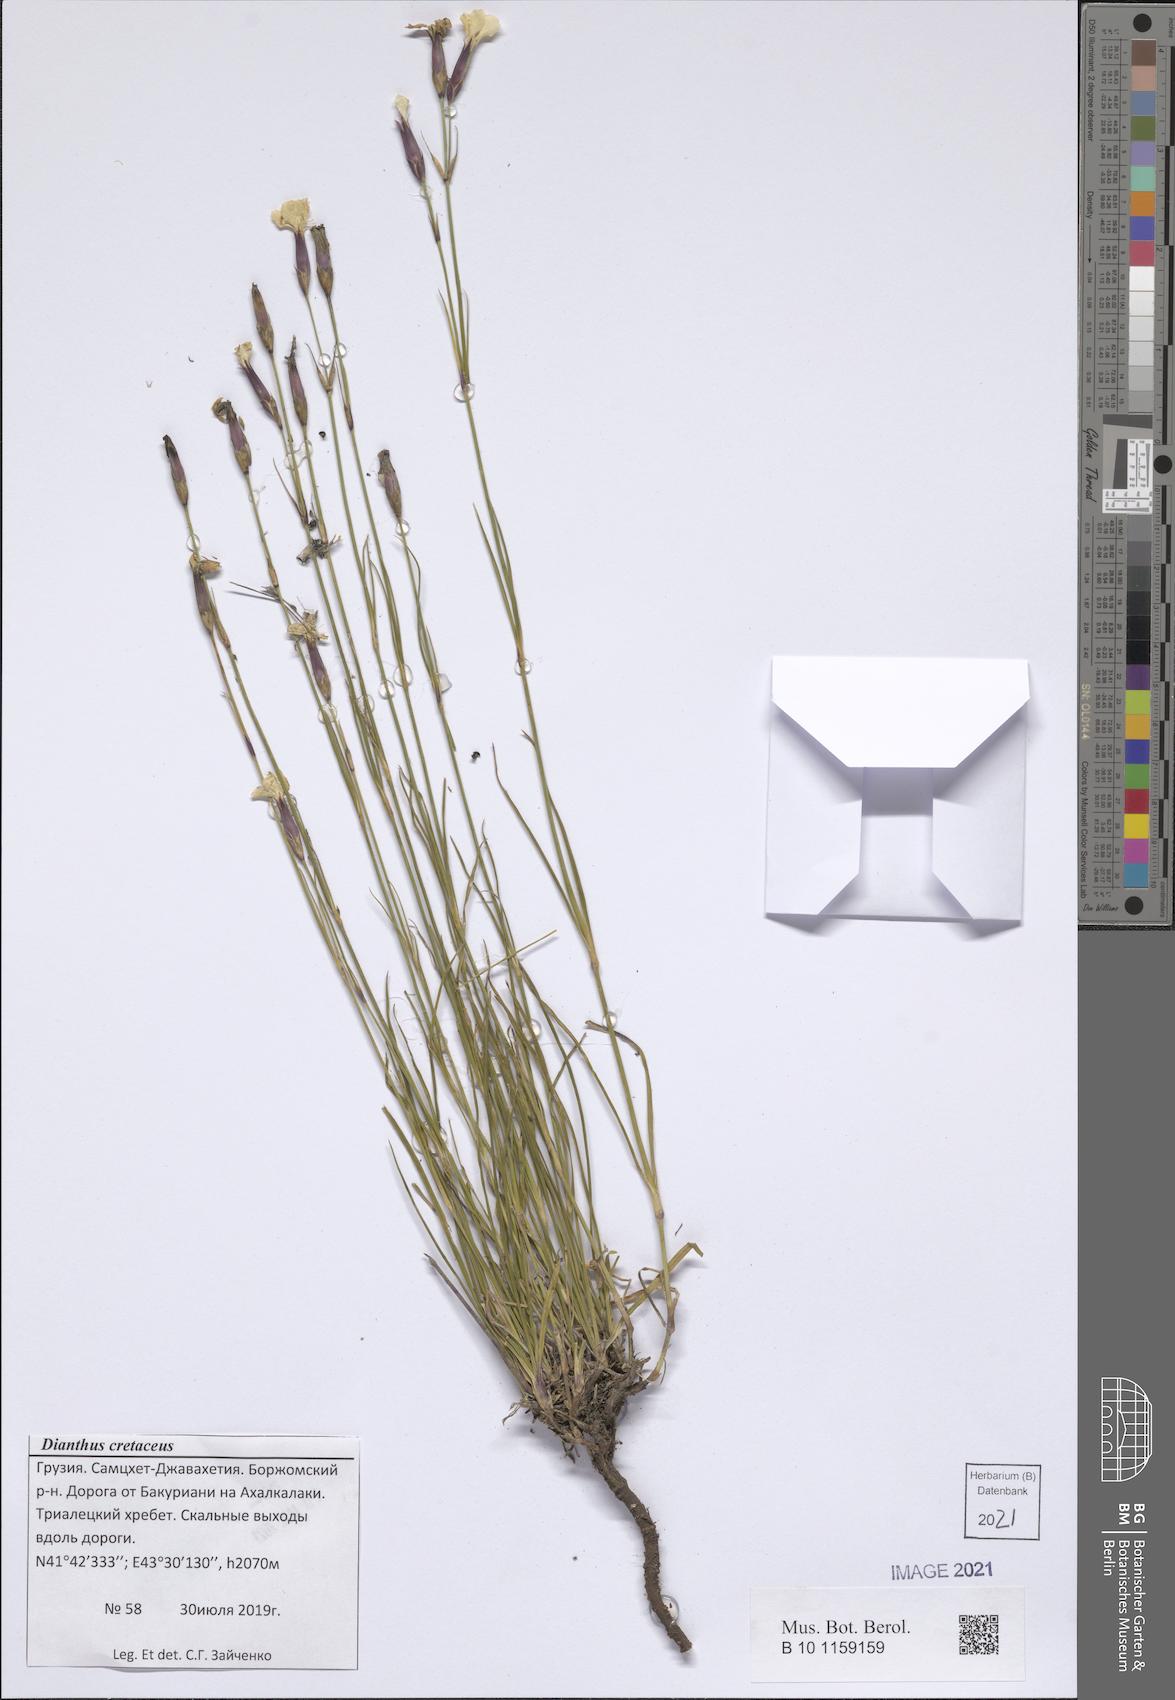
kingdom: Plantae
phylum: Tracheophyta
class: Magnoliopsida
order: Caryophyllales
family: Caryophyllaceae
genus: Dianthus
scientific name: Dianthus cretaceus
